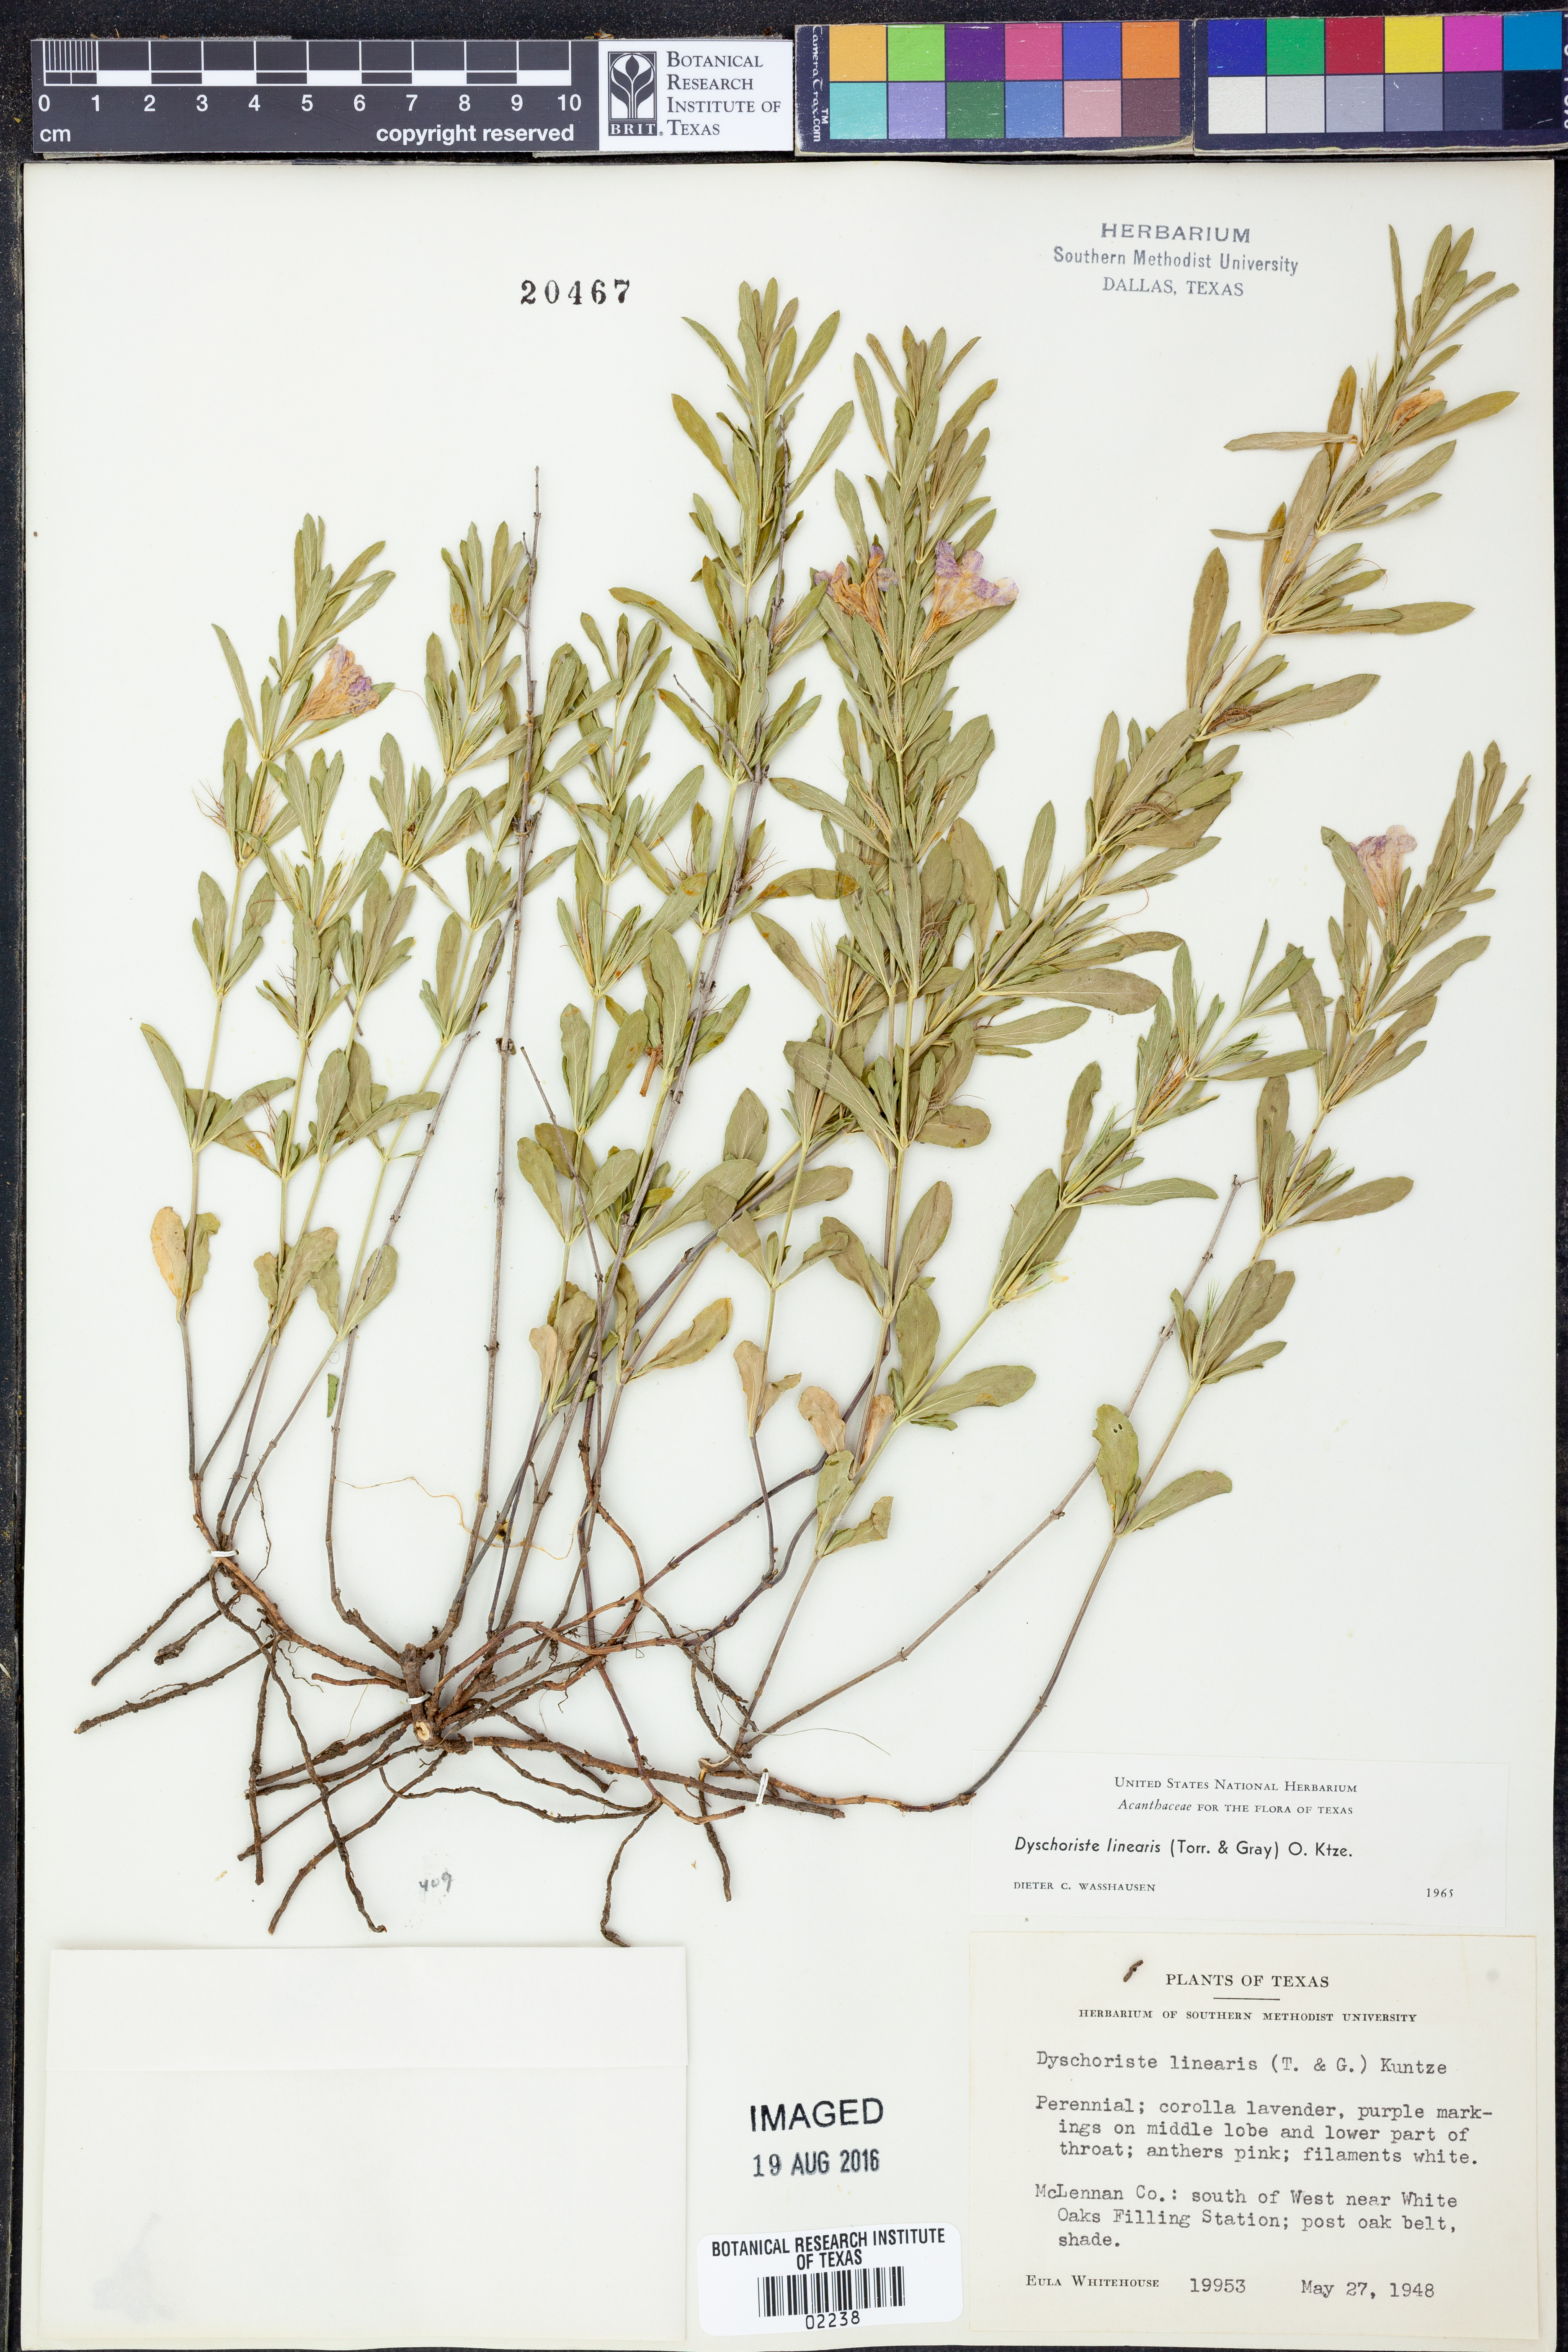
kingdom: Plantae
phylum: Tracheophyta
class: Magnoliopsida
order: Lamiales
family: Acanthaceae
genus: Dyschoriste
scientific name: Dyschoriste linearis
